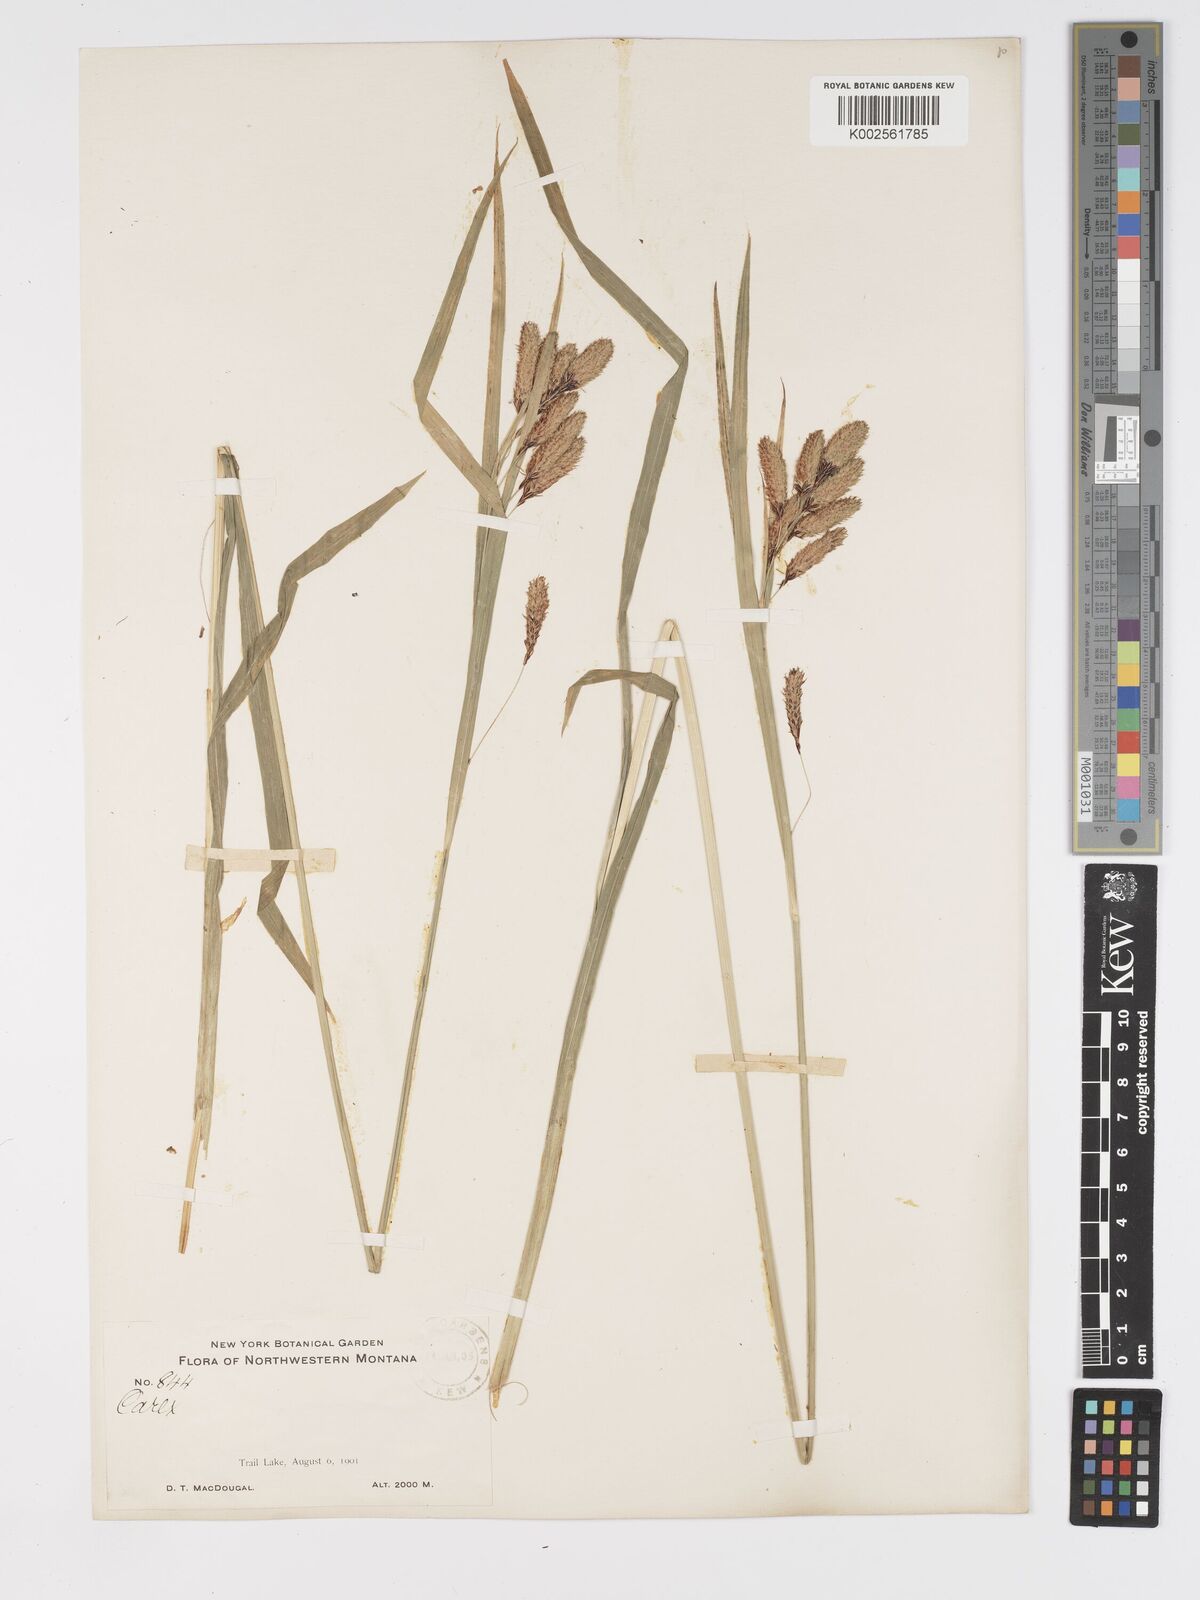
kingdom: Plantae
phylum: Tracheophyta
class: Liliopsida
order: Poales
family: Cyperaceae
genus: Carex
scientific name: Carex mertensii
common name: Mertens' sedge
